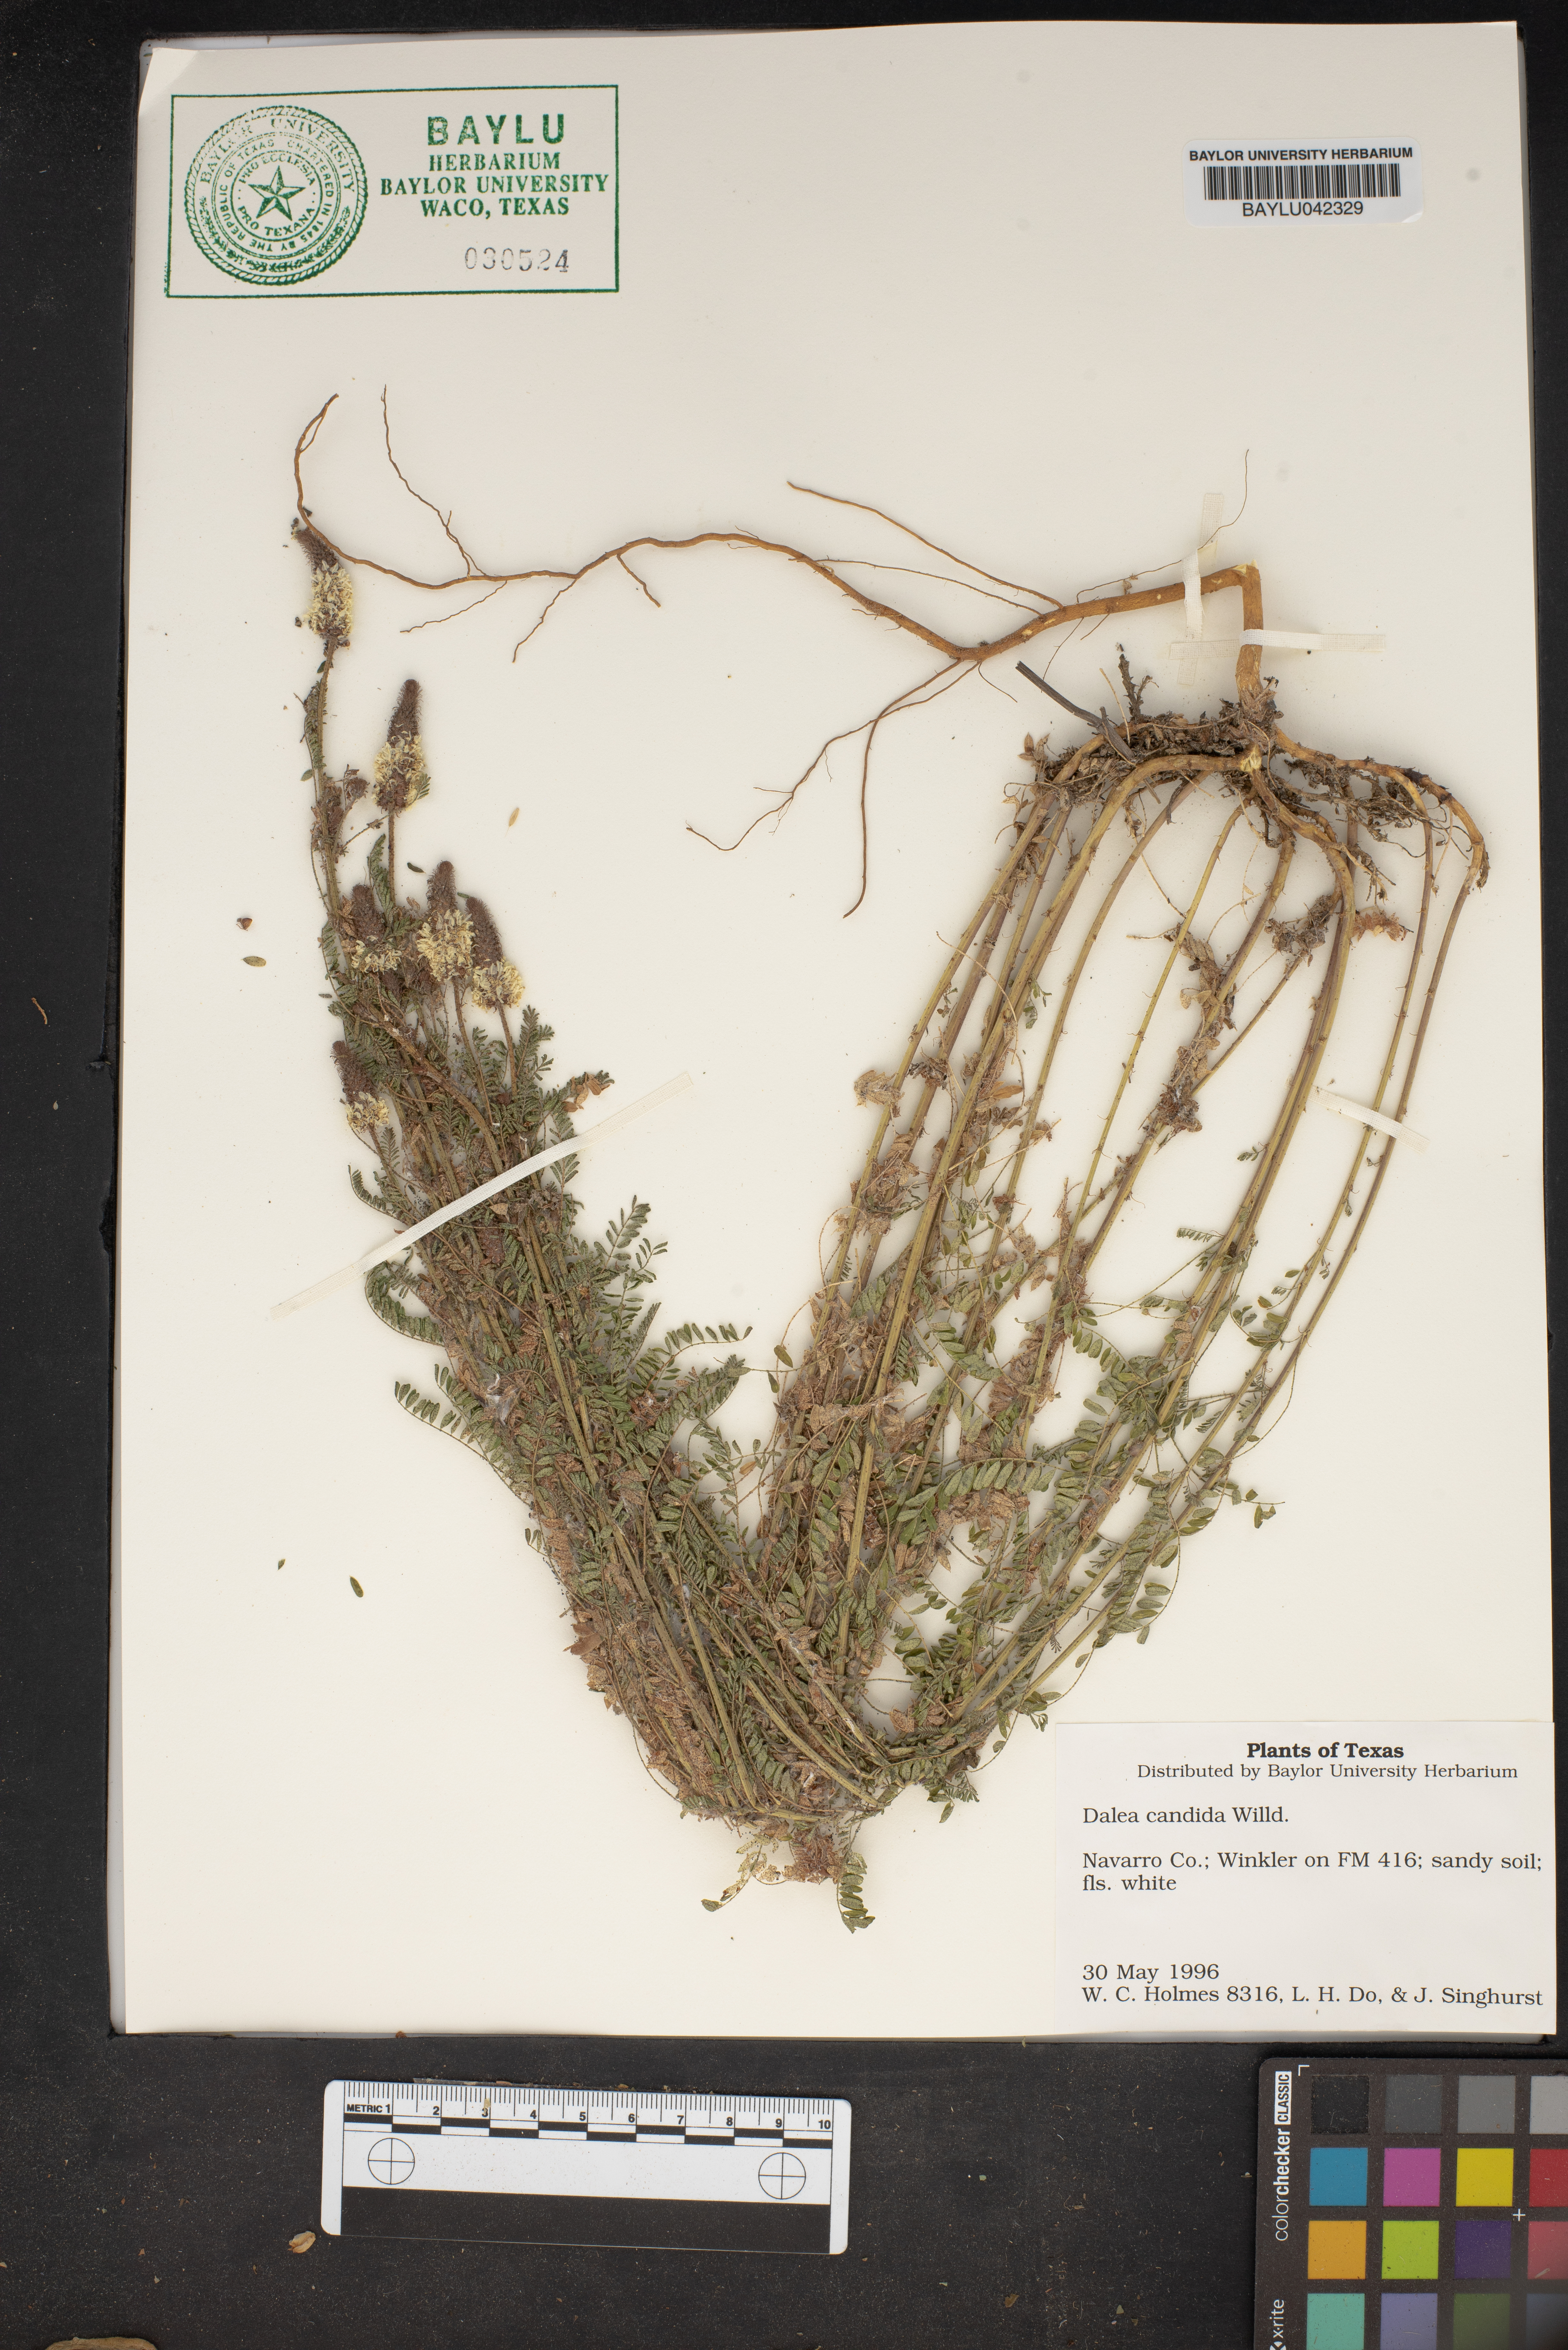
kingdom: Plantae
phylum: Tracheophyta
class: Magnoliopsida
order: Fabales
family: Fabaceae
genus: Dalea
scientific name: Dalea candida
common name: White prairie-clover
